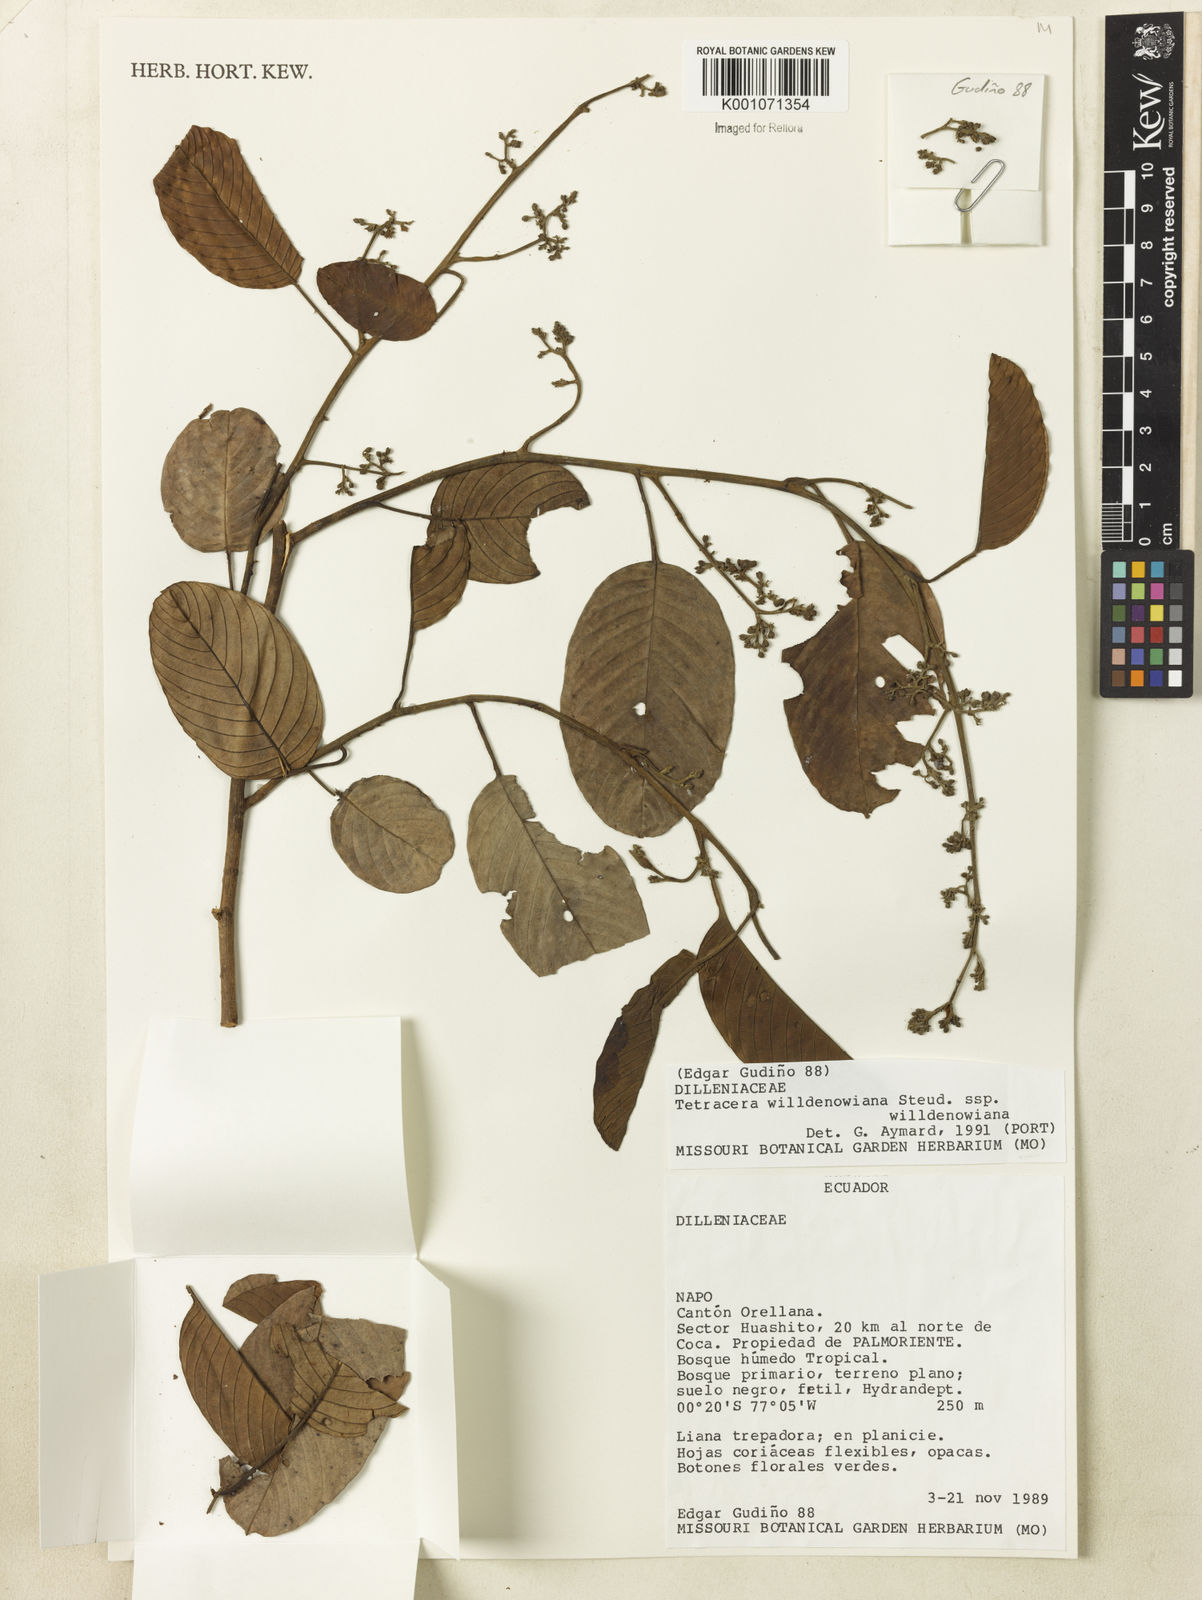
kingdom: Plantae
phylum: Tracheophyta
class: Magnoliopsida
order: Dilleniales
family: Dilleniaceae
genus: Tetracera
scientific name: Tetracera willdenowiana
